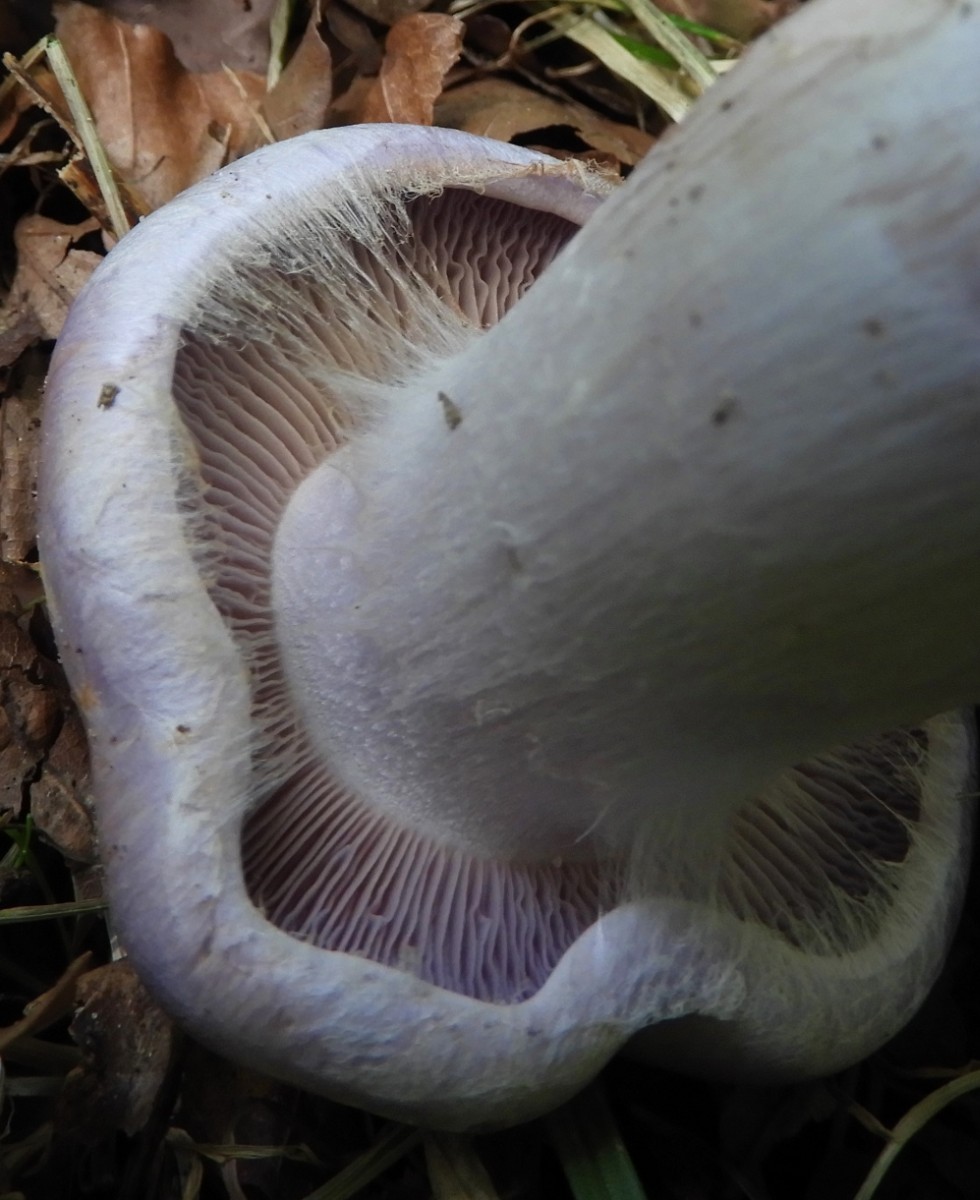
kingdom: Fungi
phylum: Basidiomycota
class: Agaricomycetes
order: Agaricales
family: Cortinariaceae
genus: Cortinarius
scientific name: Cortinarius
